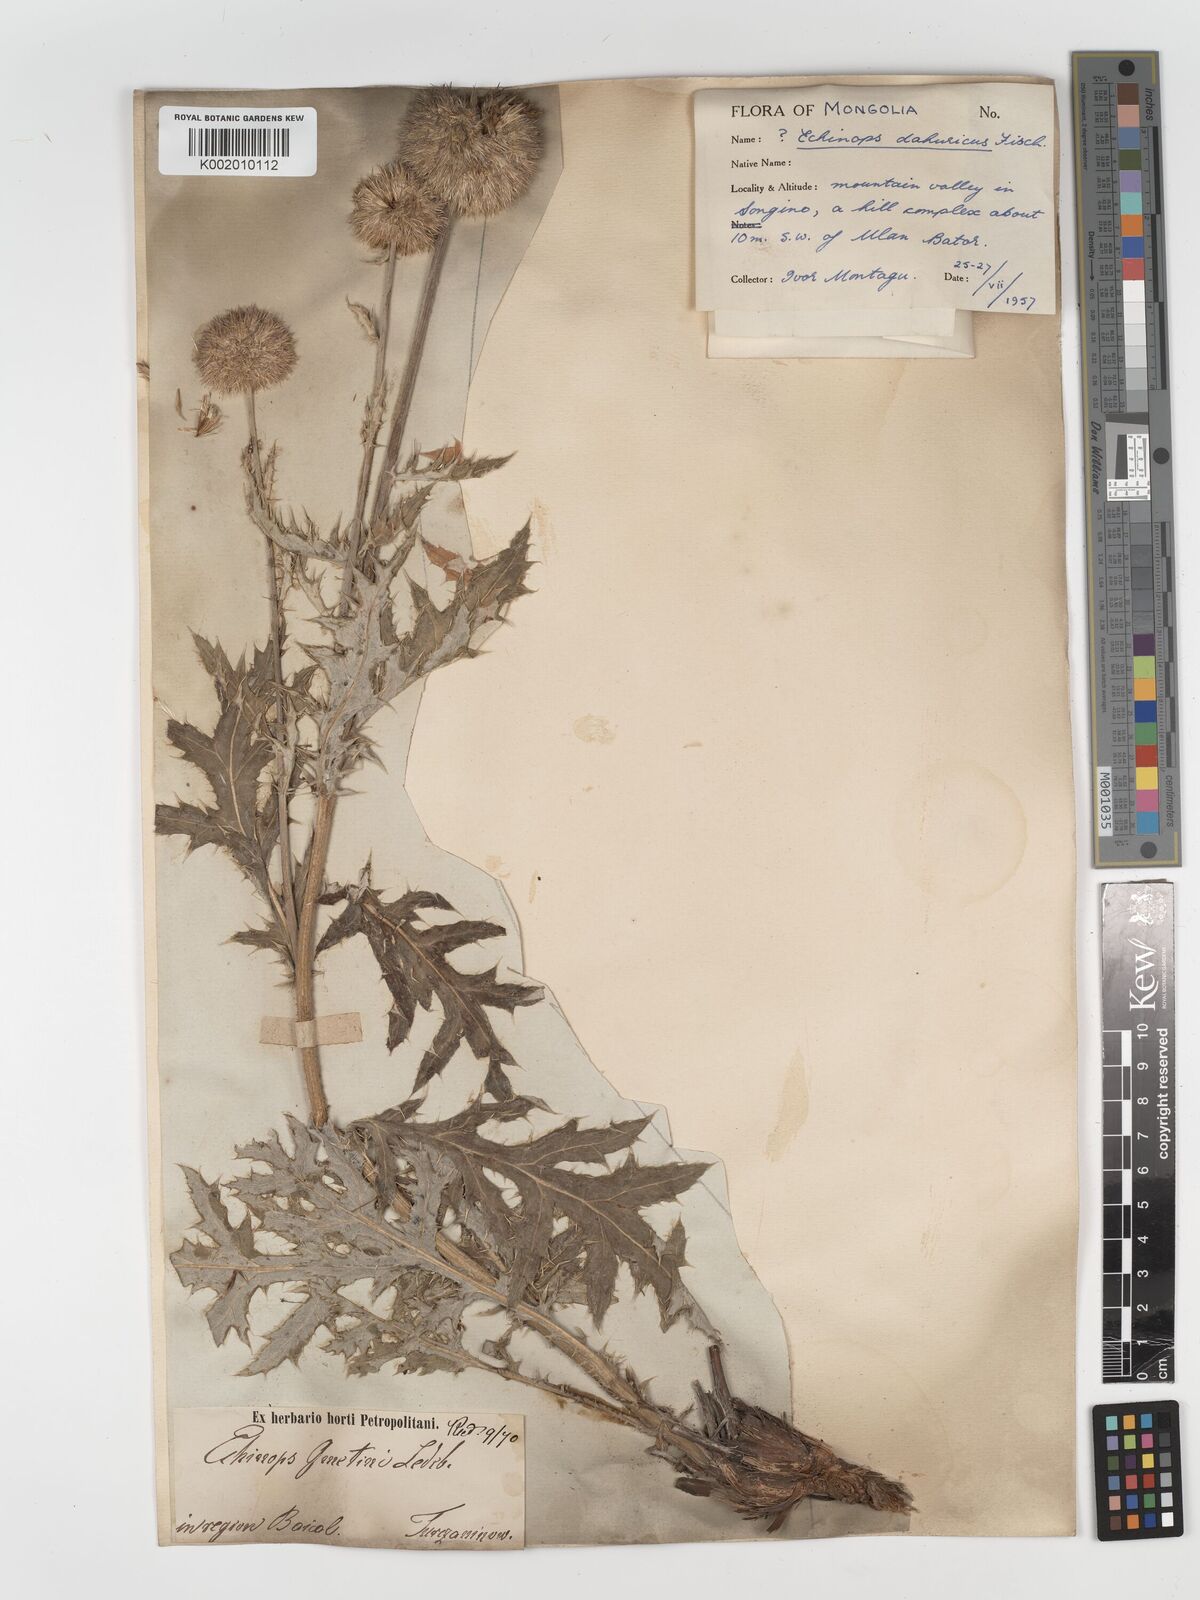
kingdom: Plantae
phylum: Tracheophyta
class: Magnoliopsida
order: Asterales
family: Asteraceae
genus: Echinops
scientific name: Echinops humilis
